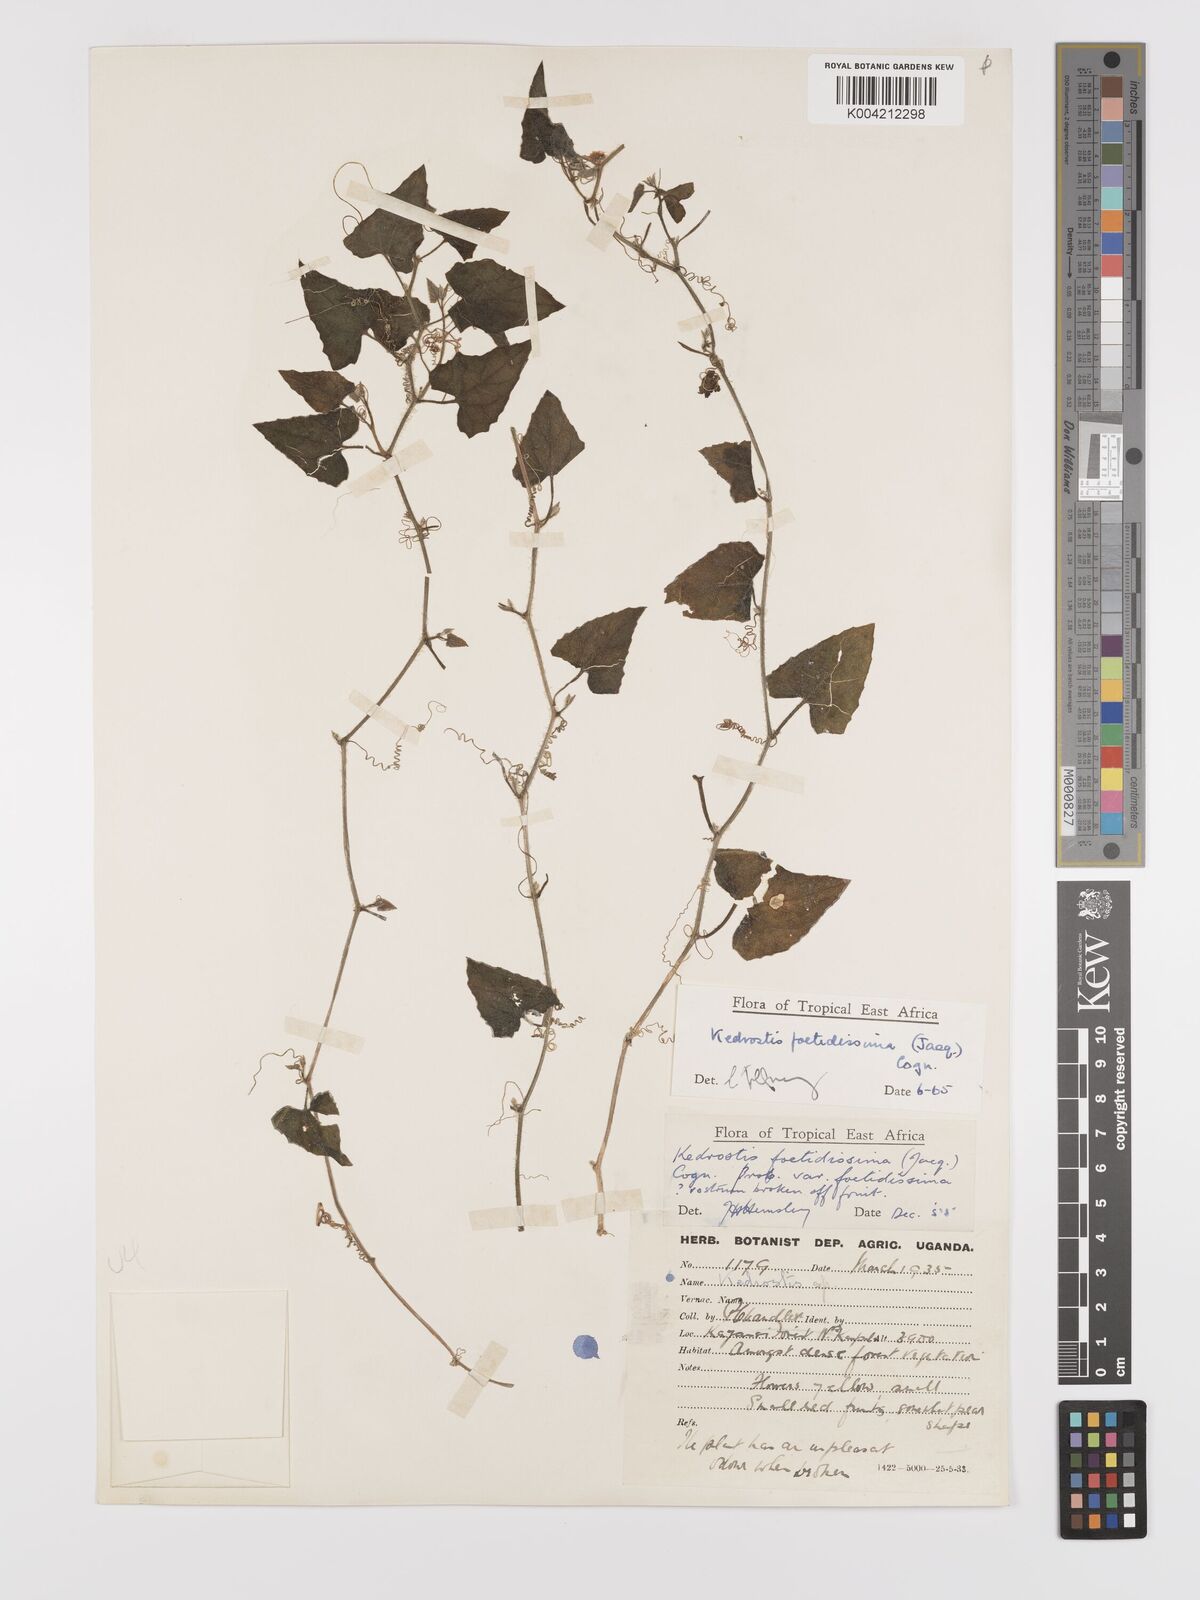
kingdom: Plantae
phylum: Tracheophyta
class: Magnoliopsida
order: Cucurbitales
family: Cucurbitaceae
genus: Kedrostis
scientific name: Kedrostis foetidissima
